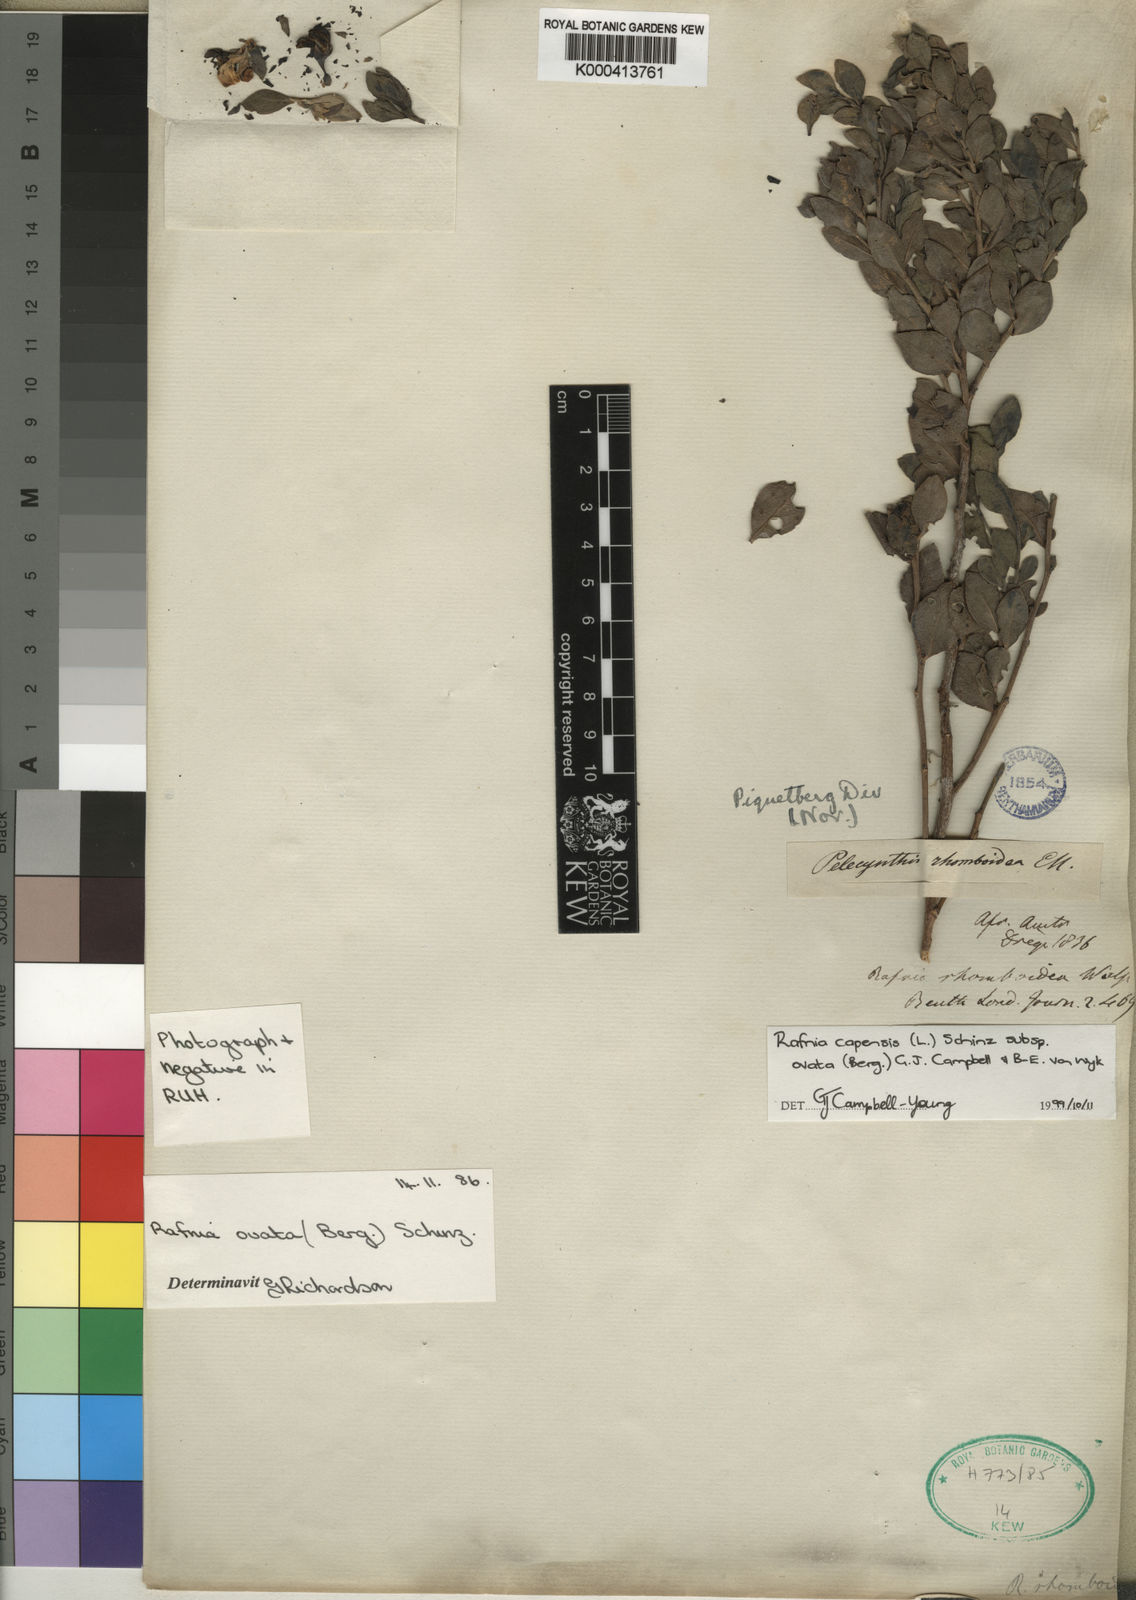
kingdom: Plantae
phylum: Tracheophyta
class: Magnoliopsida
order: Fabales
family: Fabaceae
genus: Rafnia
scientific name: Rafnia capensis
